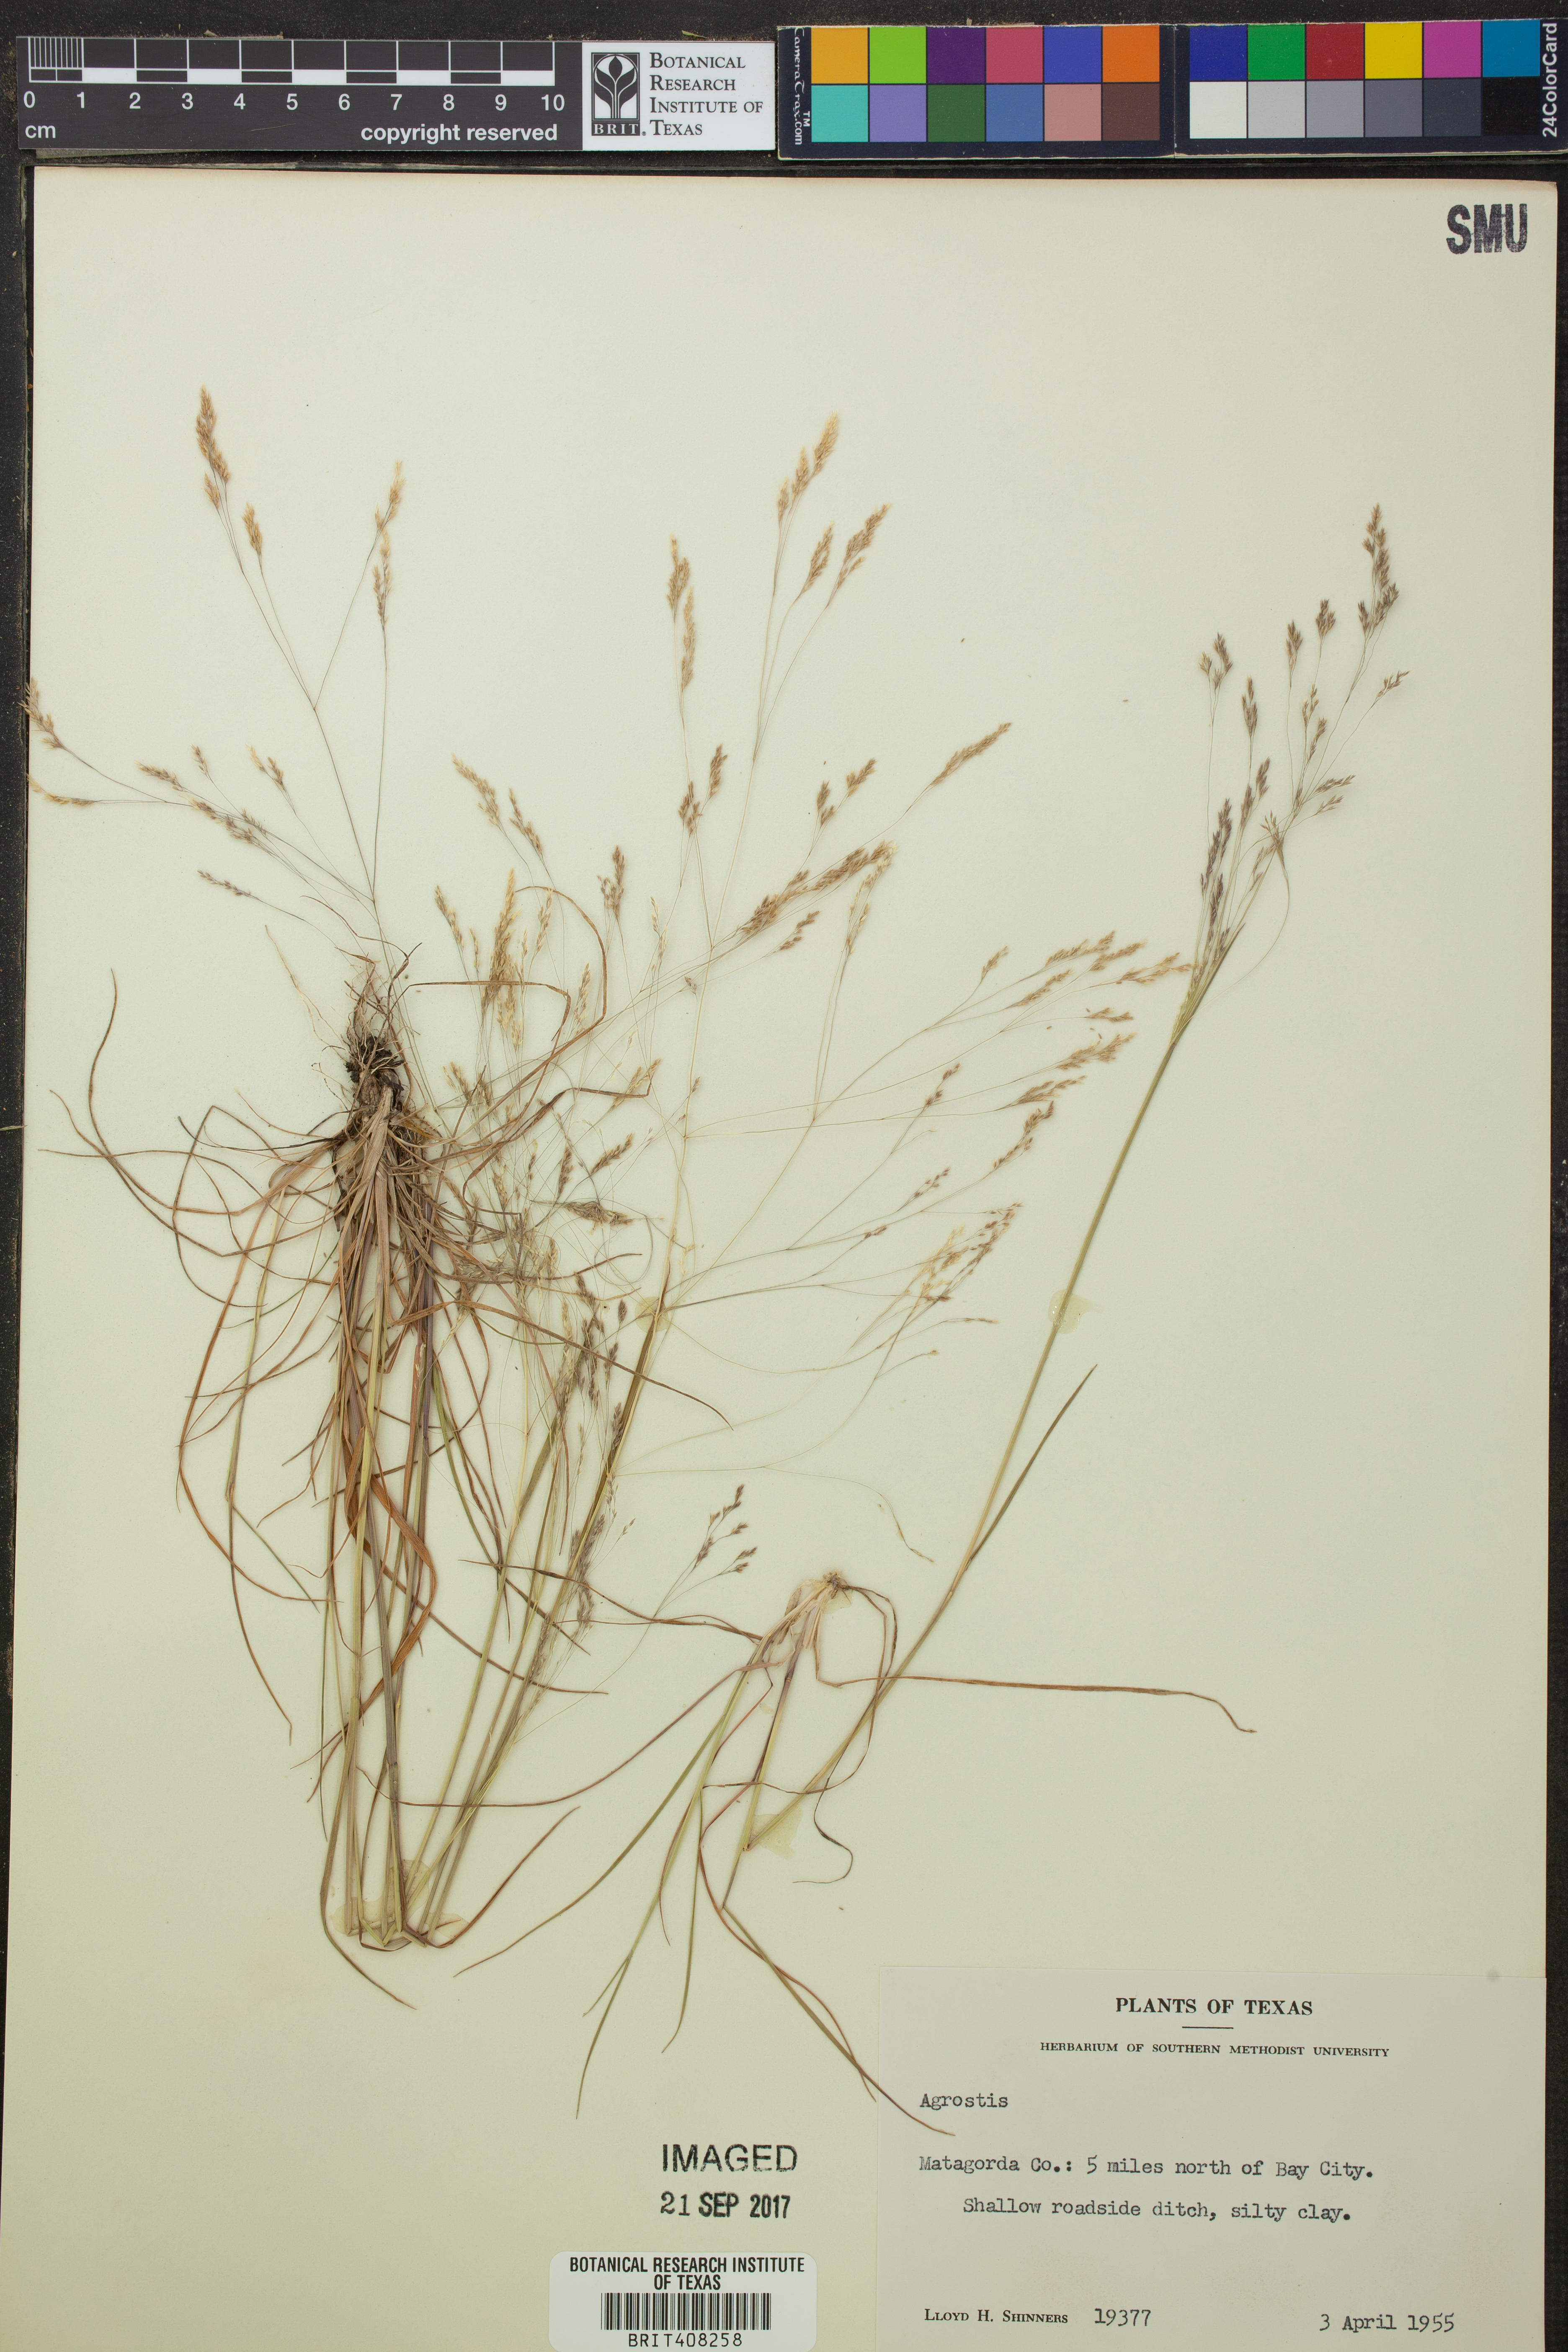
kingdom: Plantae
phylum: Tracheophyta
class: Liliopsida
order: Poales
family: Poaceae
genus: Agrostis
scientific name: Agrostis
